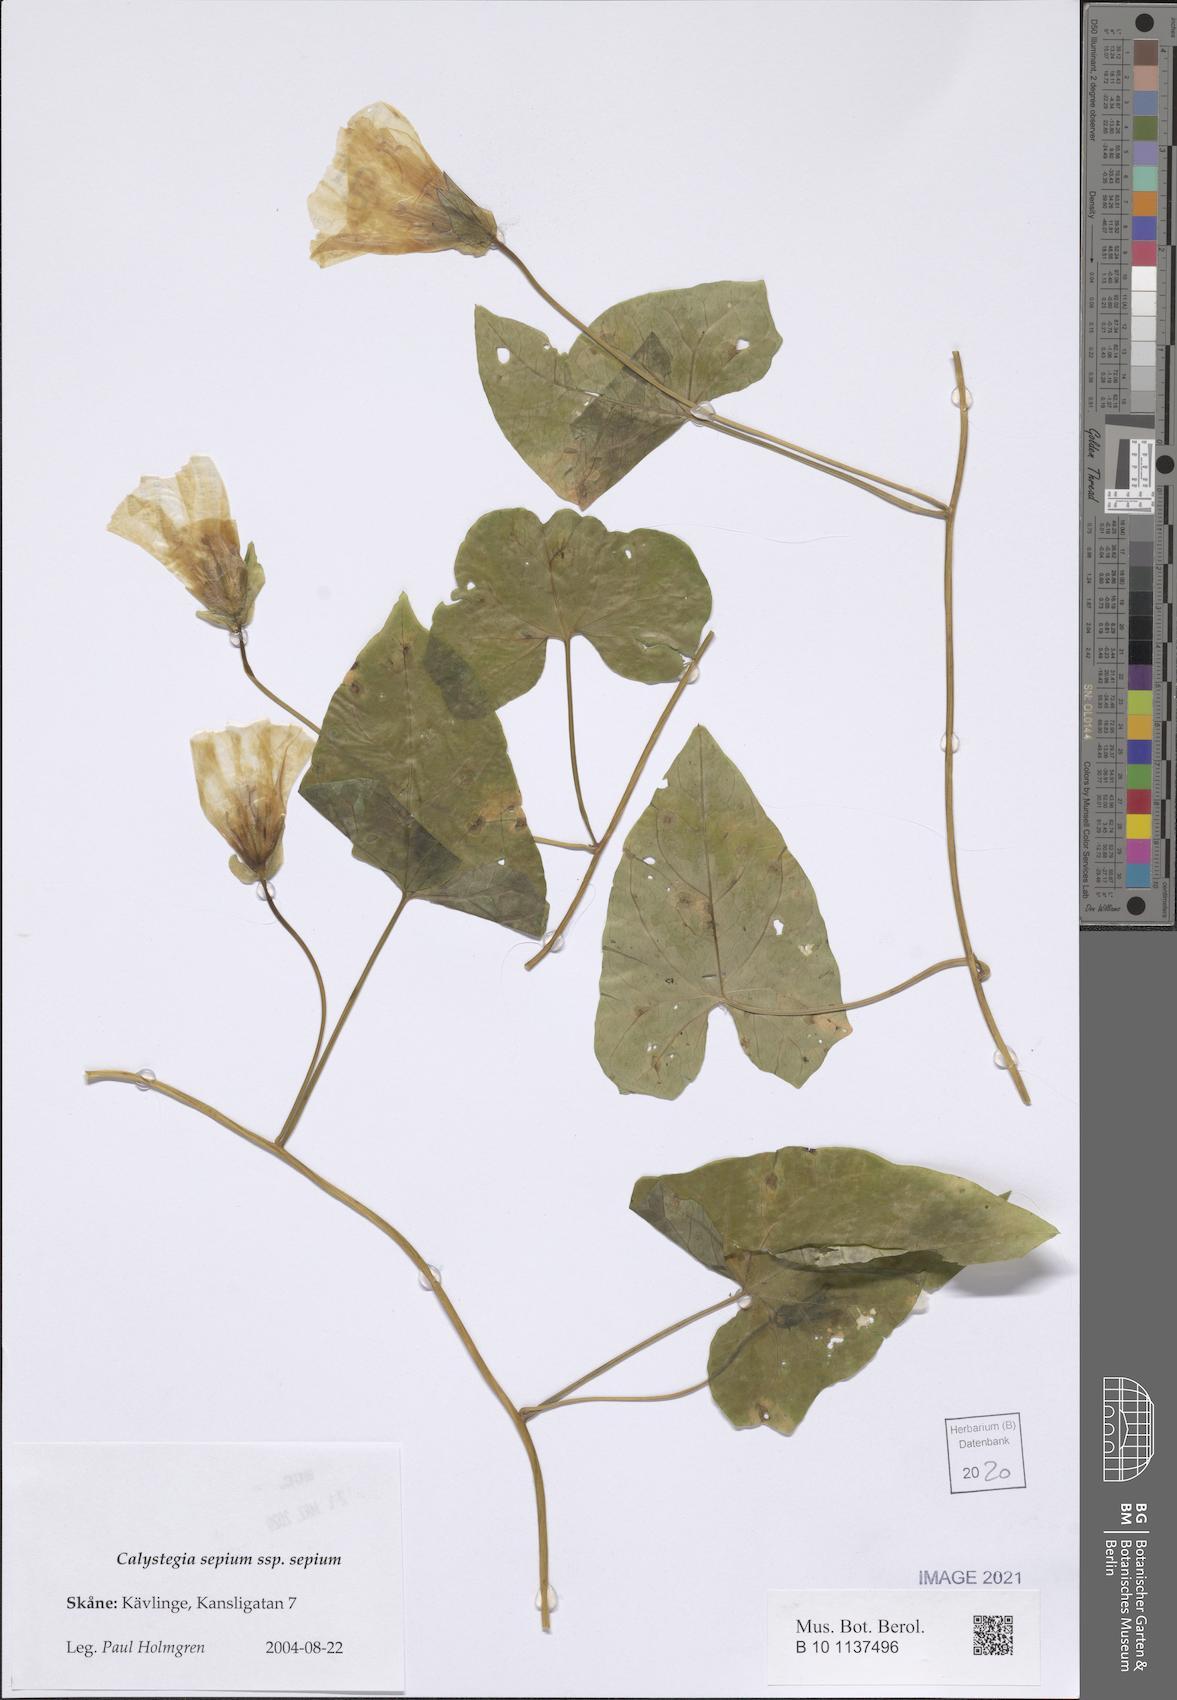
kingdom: Plantae
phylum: Tracheophyta
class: Magnoliopsida
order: Solanales
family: Convolvulaceae
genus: Calystegia
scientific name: Calystegia sepium
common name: Hedge bindweed
